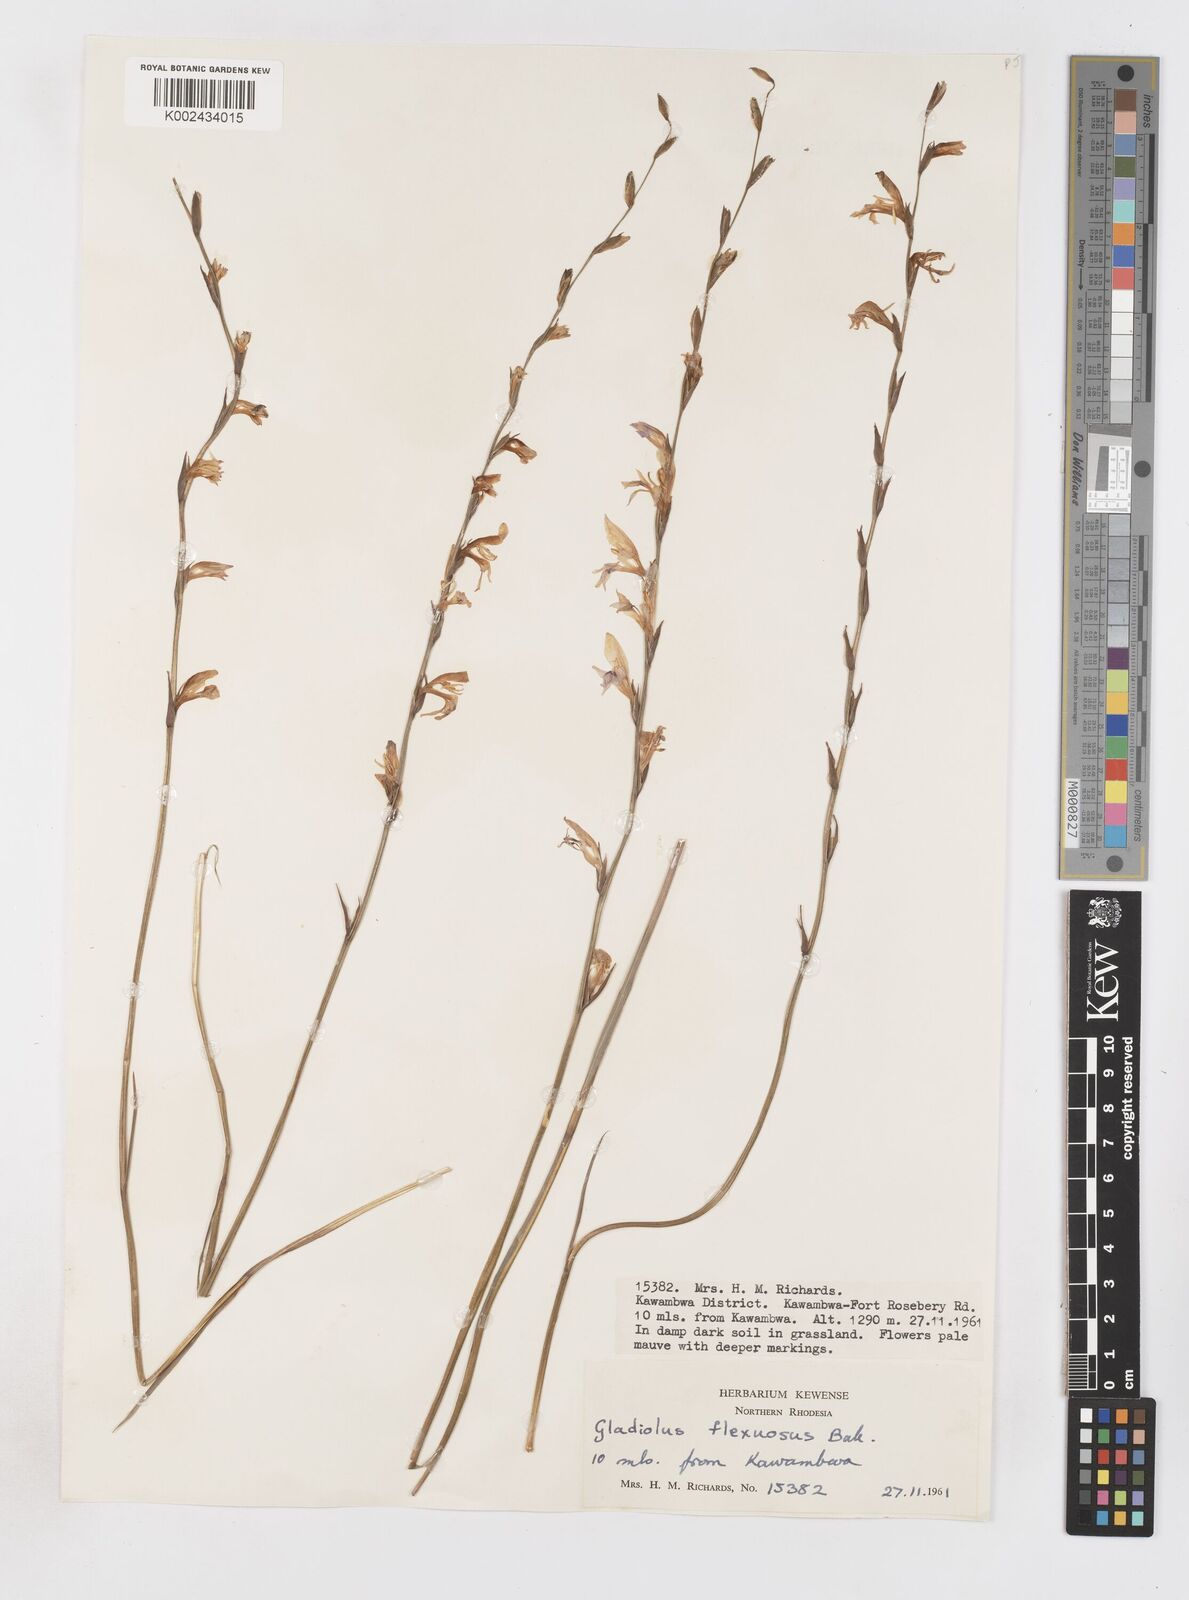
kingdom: Plantae
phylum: Tracheophyta
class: Liliopsida
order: Asparagales
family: Iridaceae
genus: Gladiolus
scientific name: Gladiolus atropurpureus
